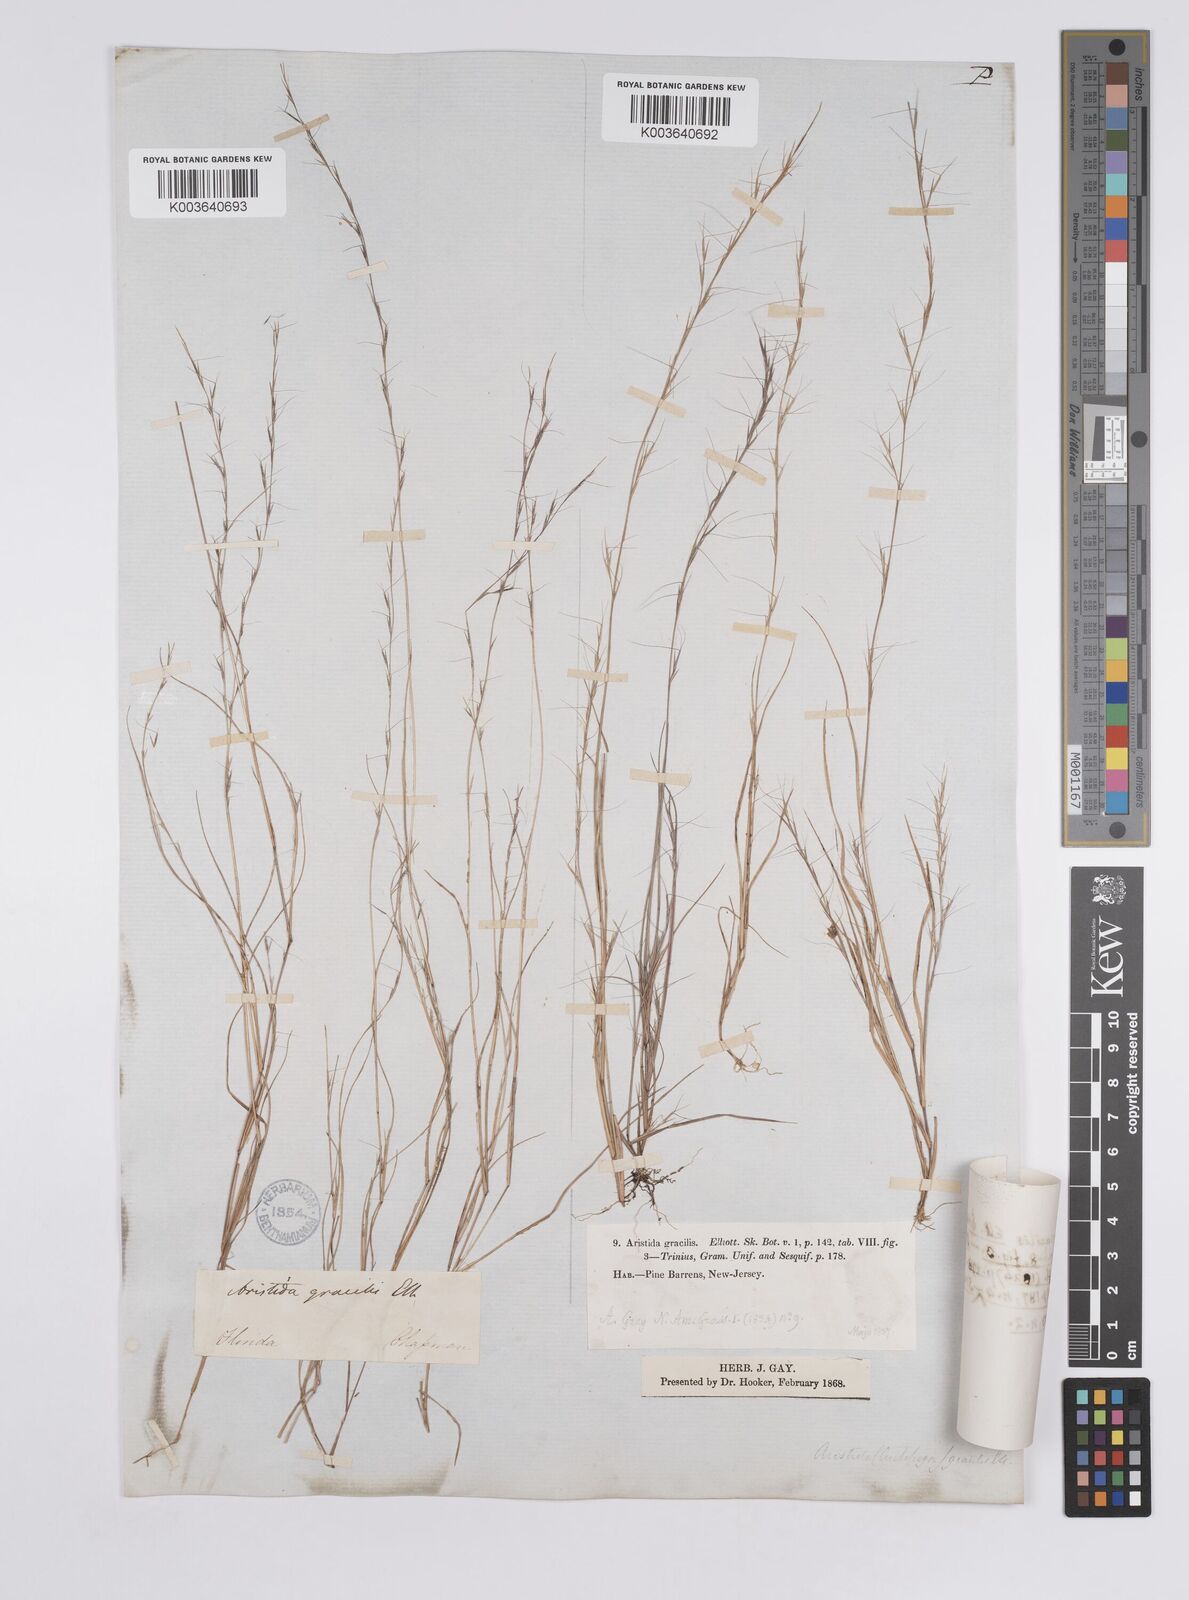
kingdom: Plantae
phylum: Tracheophyta
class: Liliopsida
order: Poales
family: Poaceae
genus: Aristida
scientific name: Aristida longespica
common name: Long-spiked triple-awned grass
